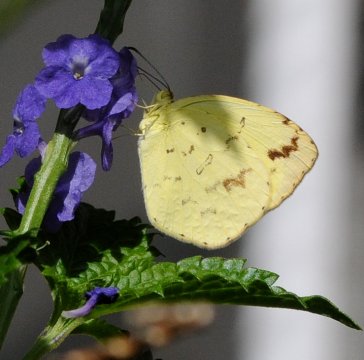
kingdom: Animalia
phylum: Arthropoda
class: Insecta
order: Lepidoptera
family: Pieridae
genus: Eurema
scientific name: Eurema desjardinsii
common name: Angled Grass Yellow
